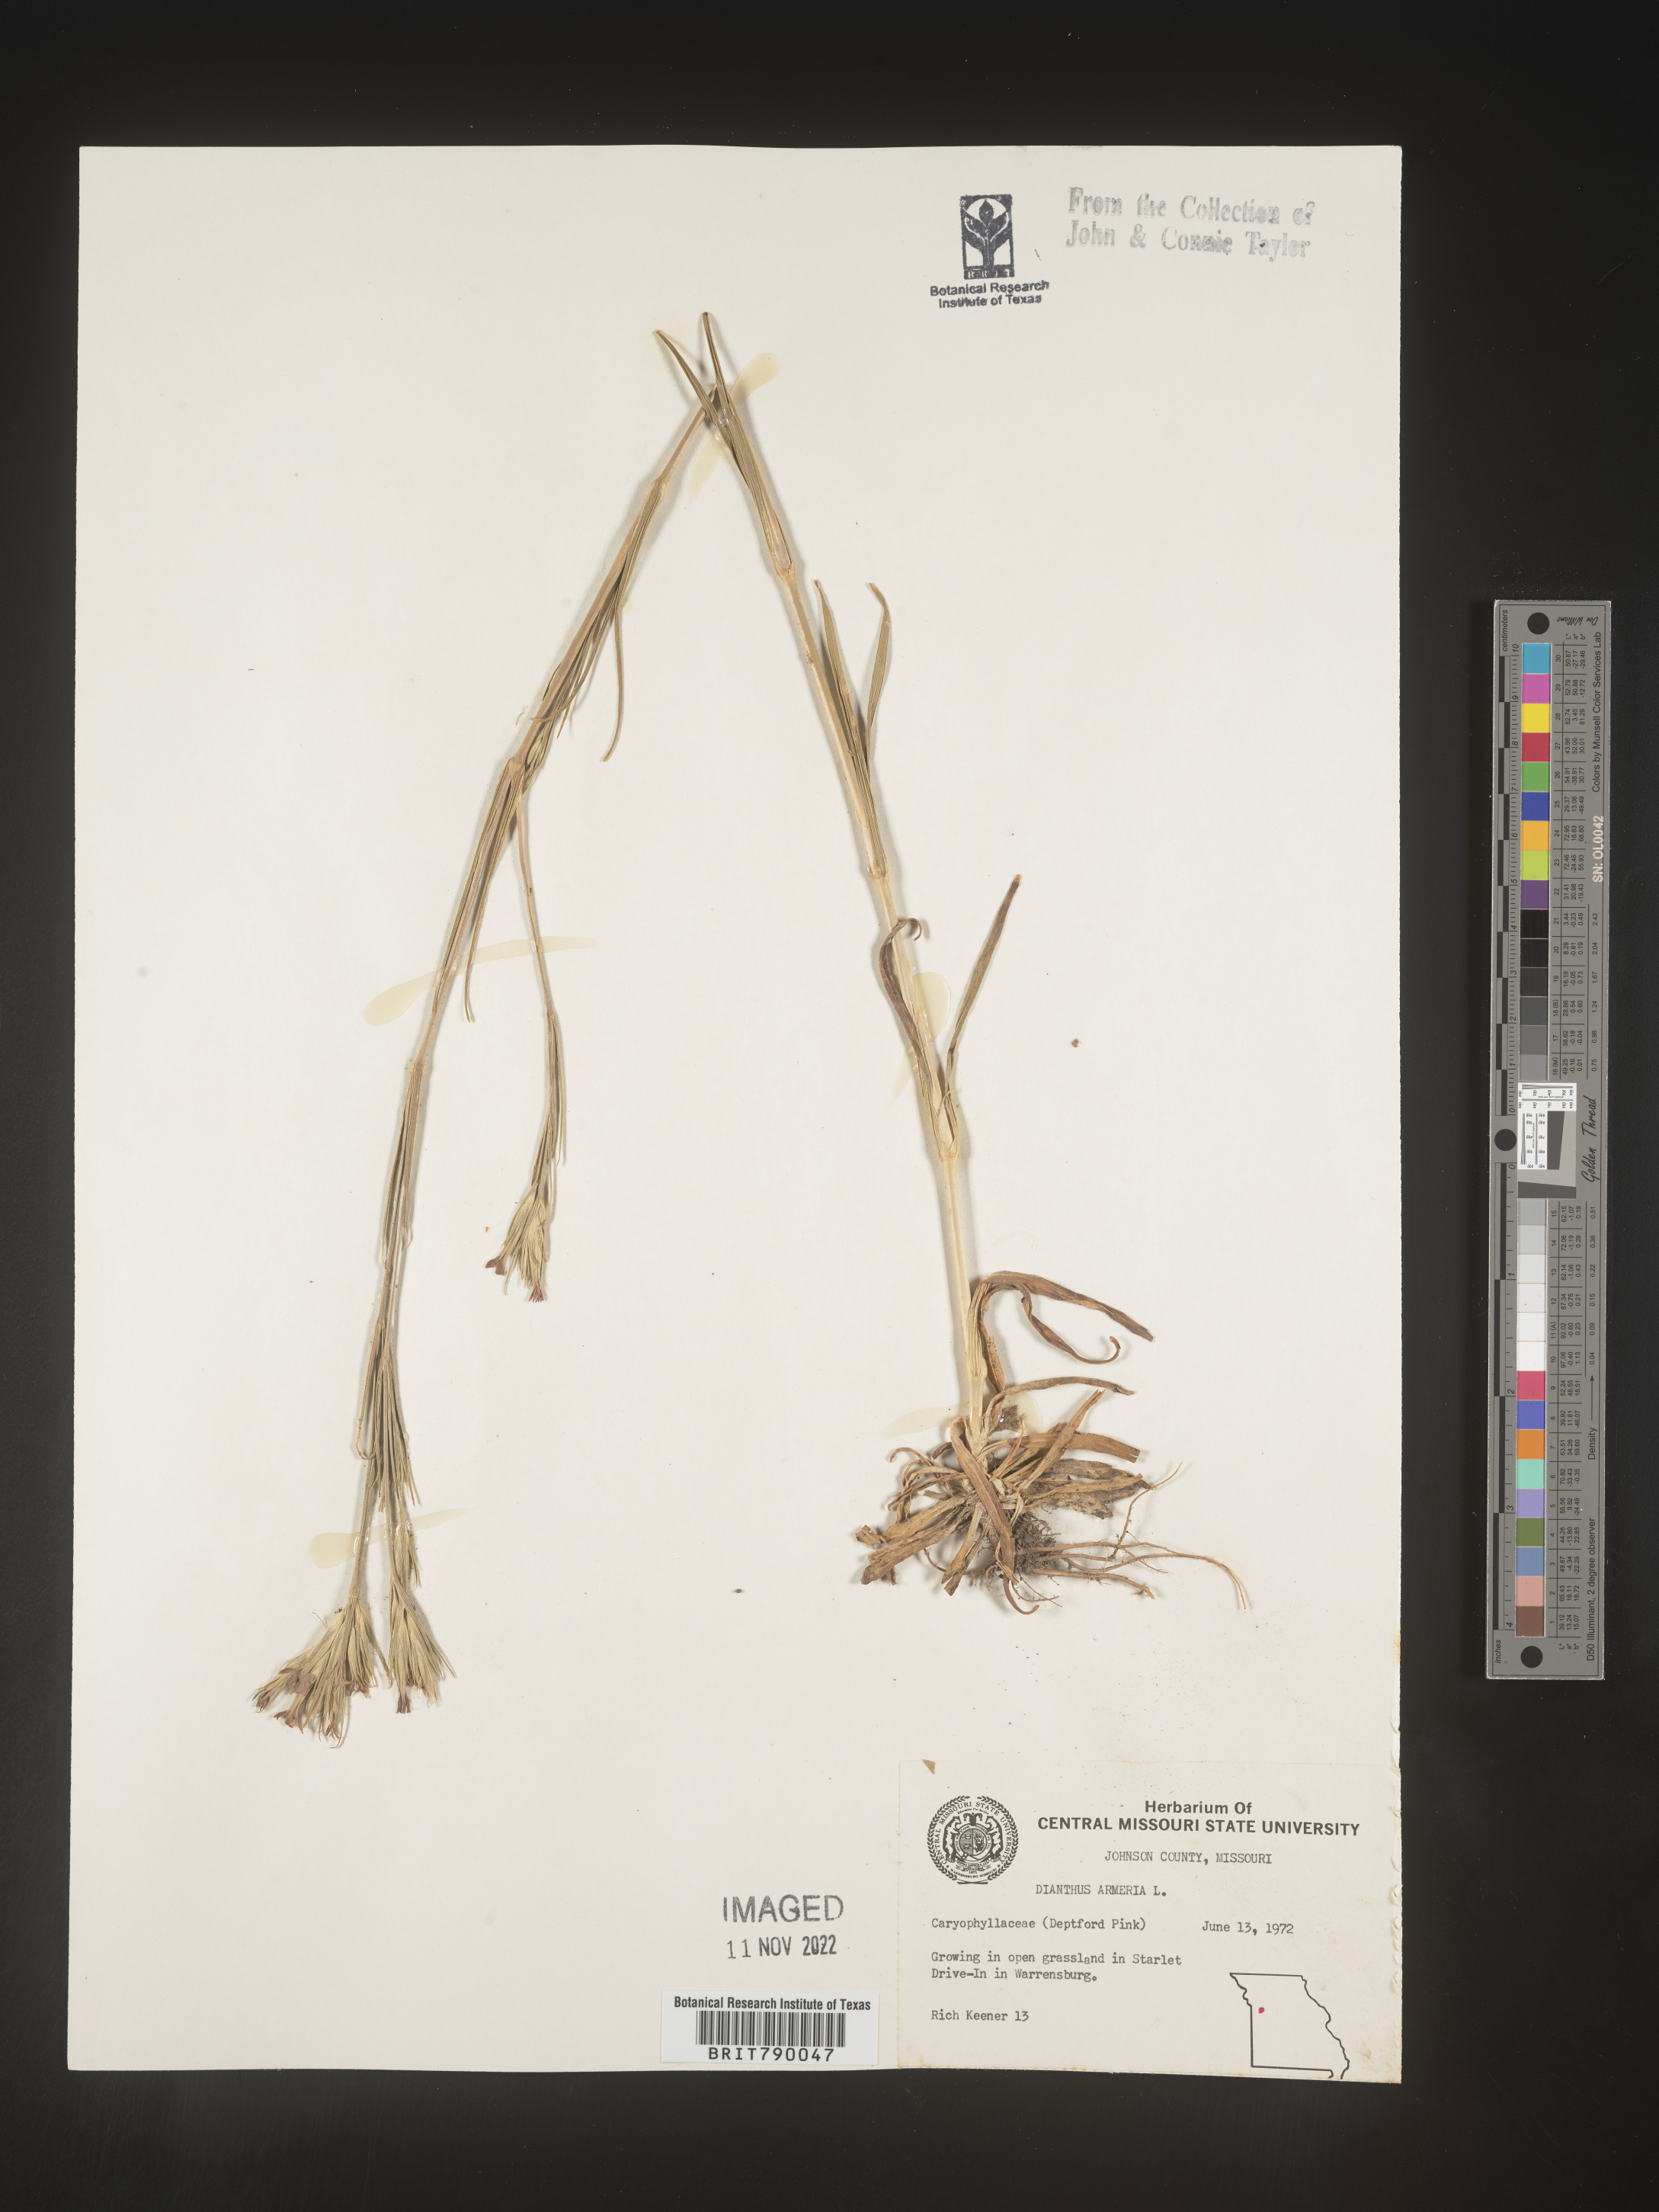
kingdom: Plantae
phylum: Tracheophyta
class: Magnoliopsida
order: Caryophyllales
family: Caryophyllaceae
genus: Dianthus
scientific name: Dianthus armeria
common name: Deptford pink
